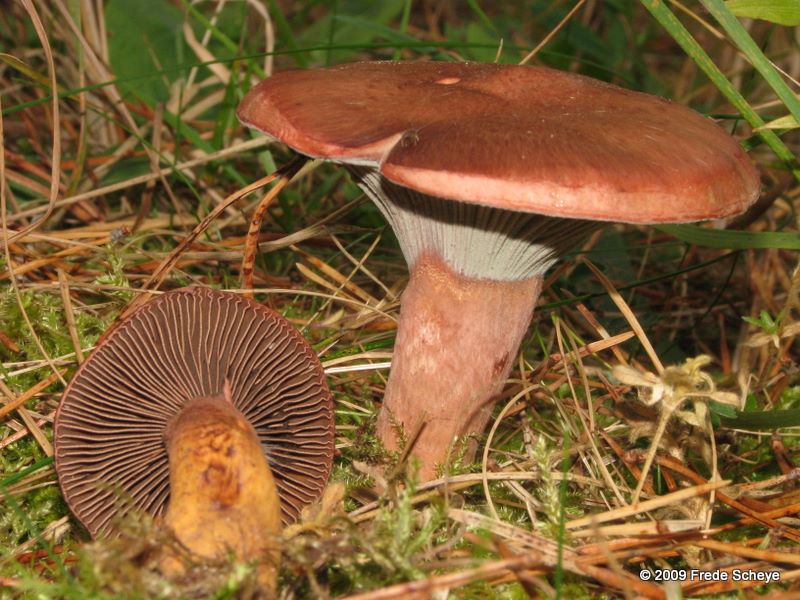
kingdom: Fungi
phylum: Basidiomycota
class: Agaricomycetes
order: Boletales
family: Gomphidiaceae
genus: Chroogomphus
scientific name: Chroogomphus rutilus
